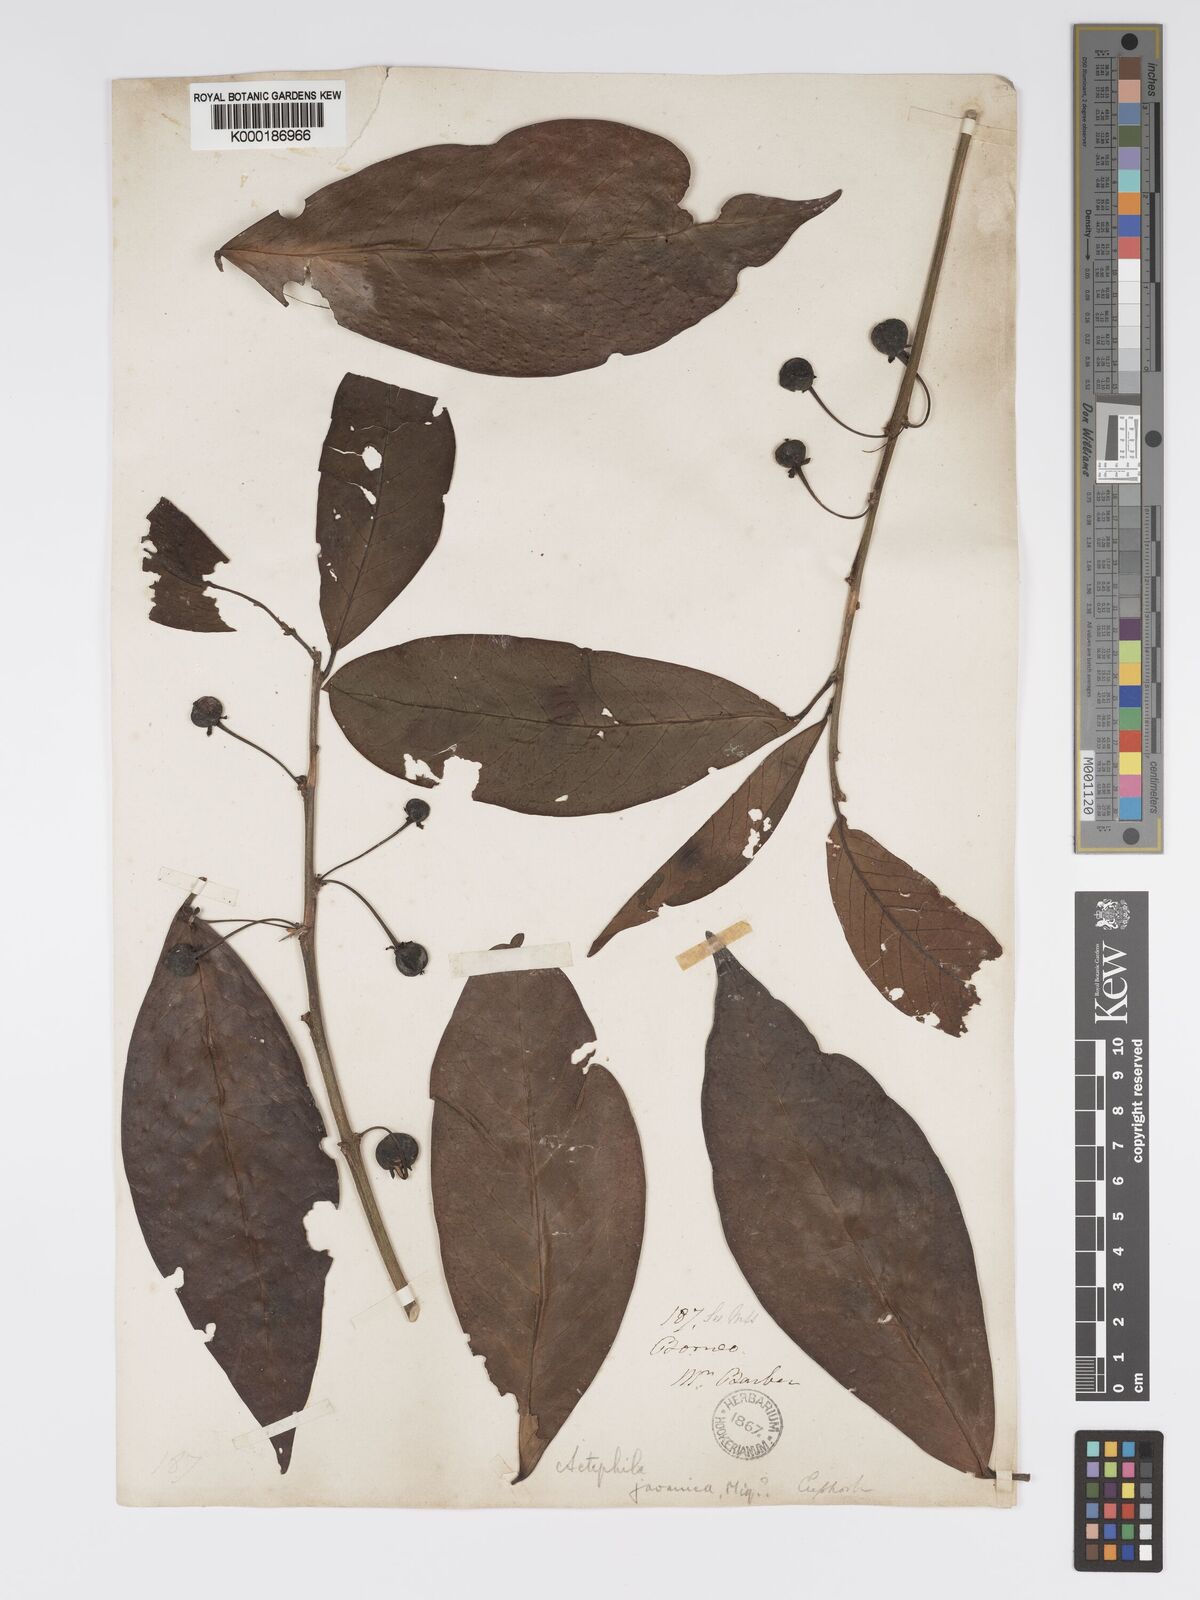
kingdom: Plantae
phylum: Tracheophyta
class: Magnoliopsida
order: Malpighiales
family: Phyllanthaceae
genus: Actephila
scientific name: Actephila
